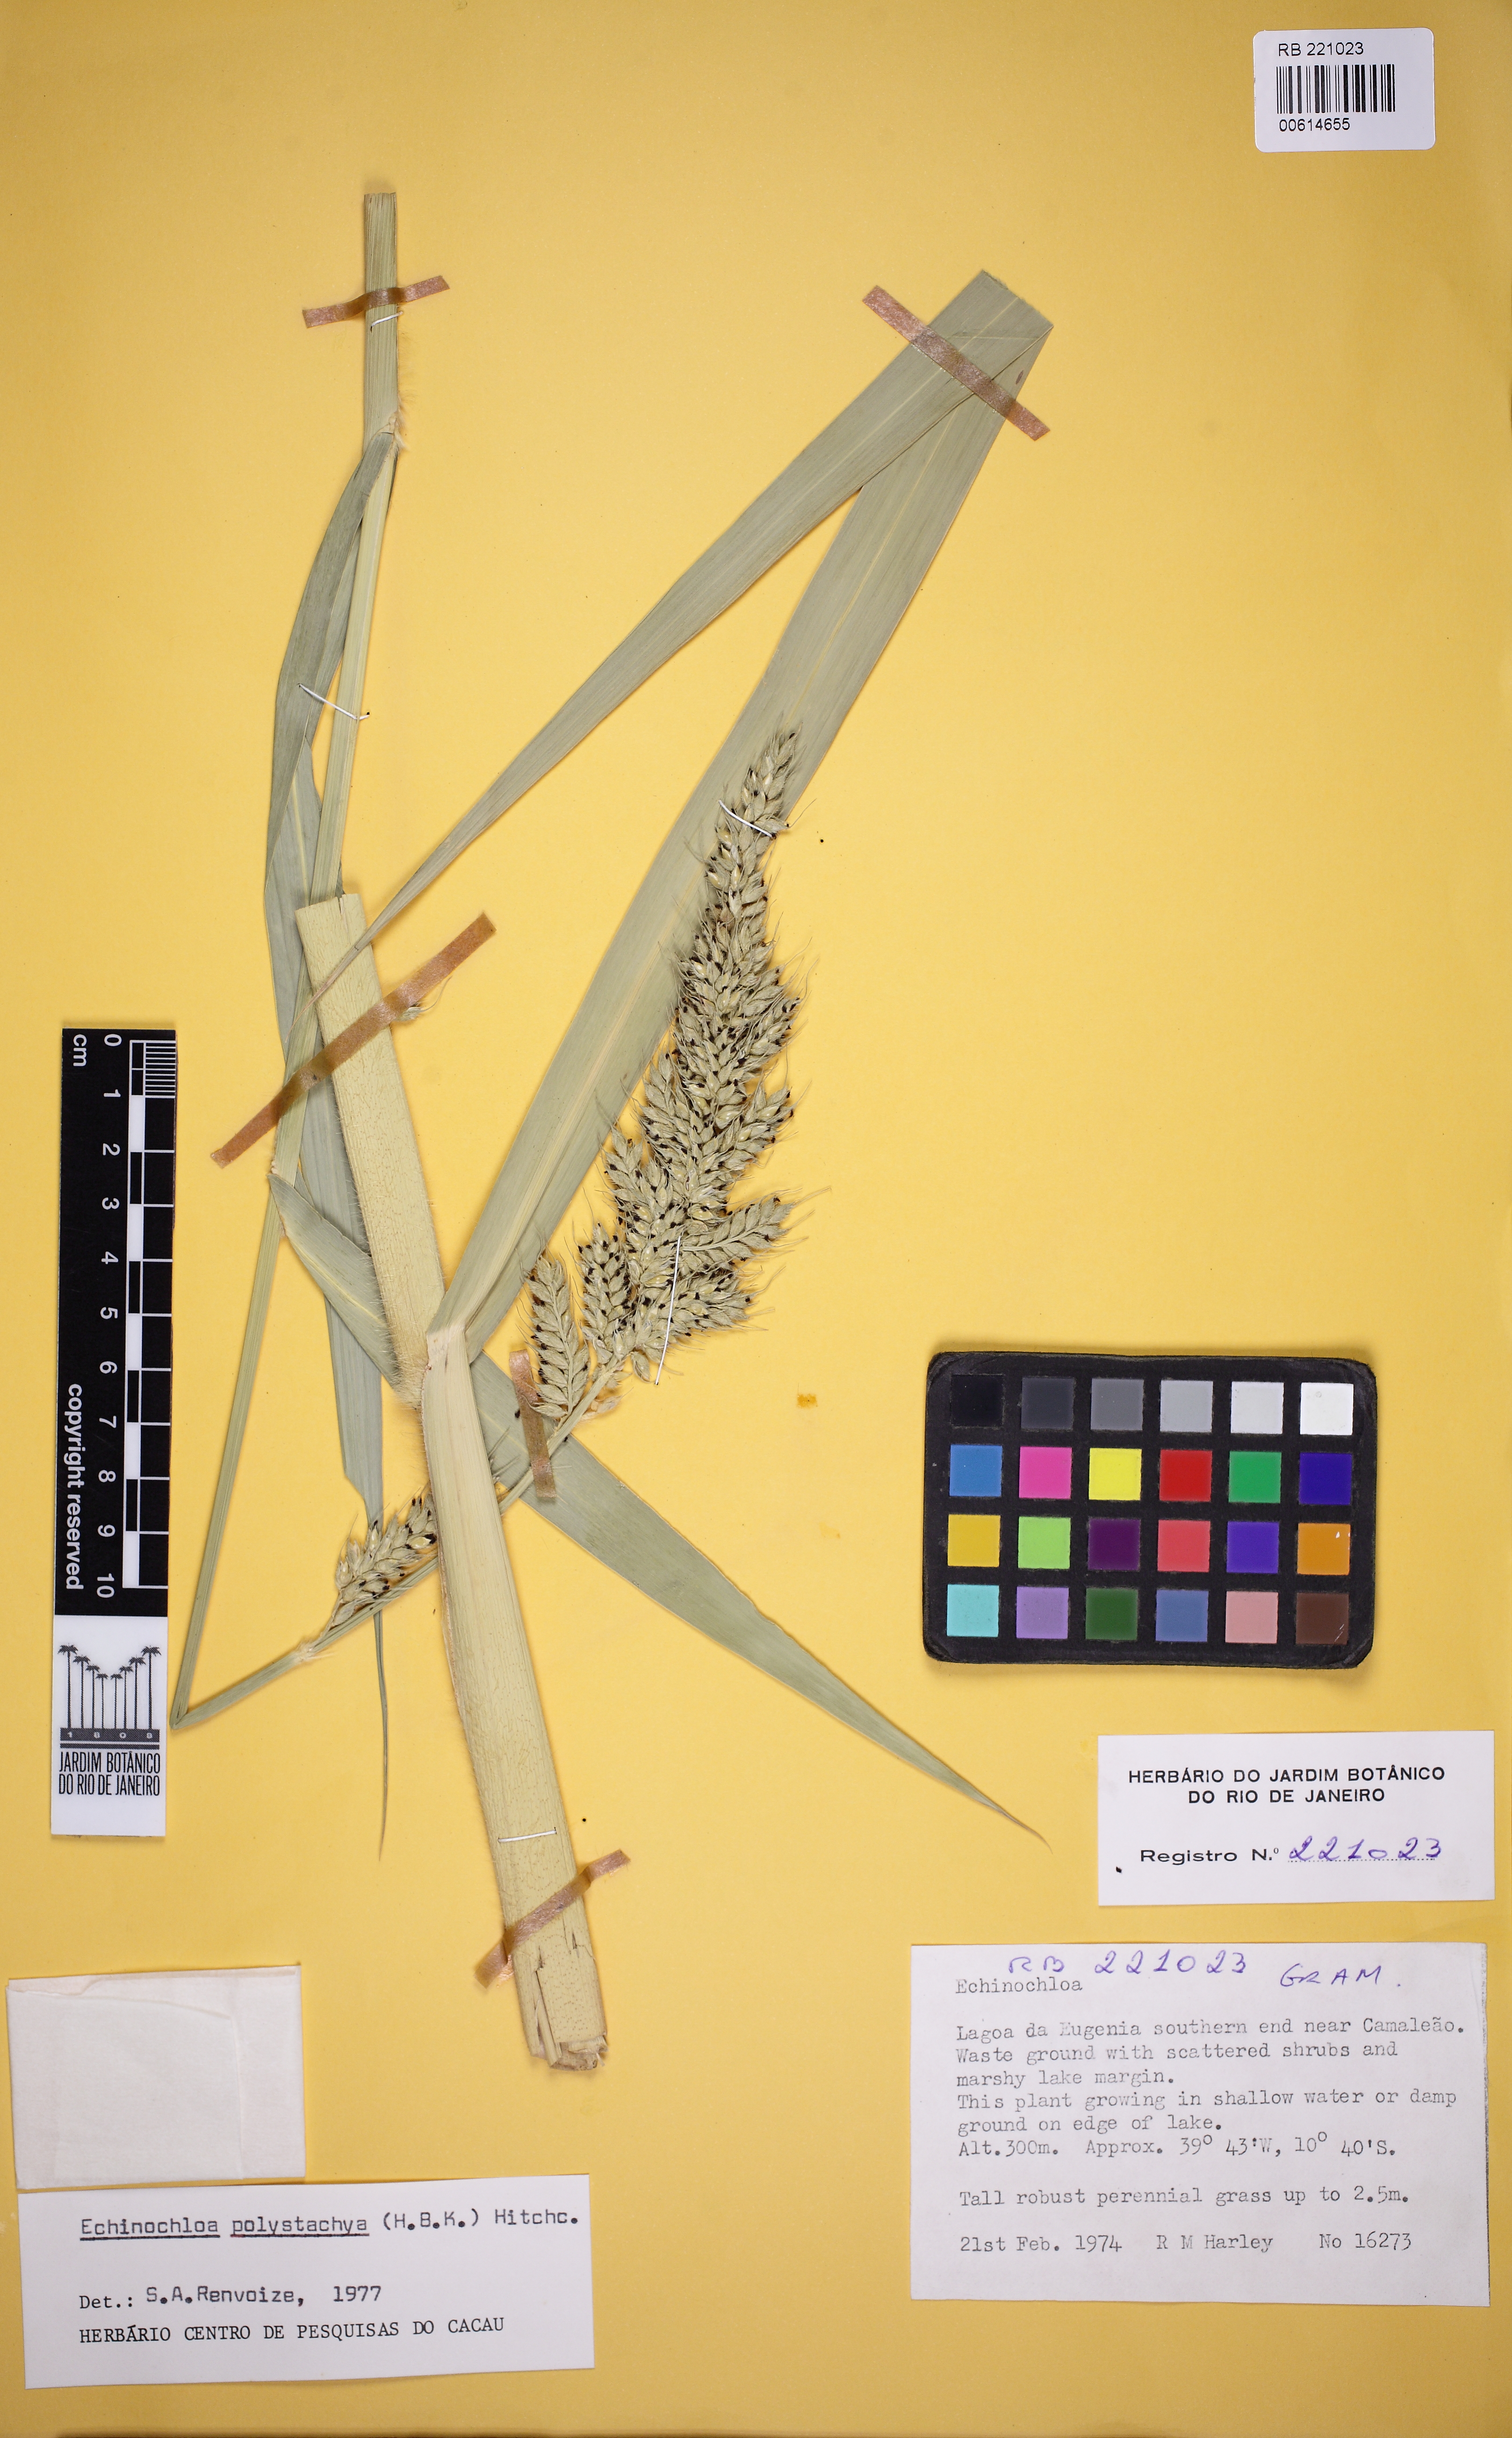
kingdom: Plantae
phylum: Tracheophyta
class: Liliopsida
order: Poales
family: Poaceae
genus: Echinochloa
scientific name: Echinochloa polystachya
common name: Creeping river grass
